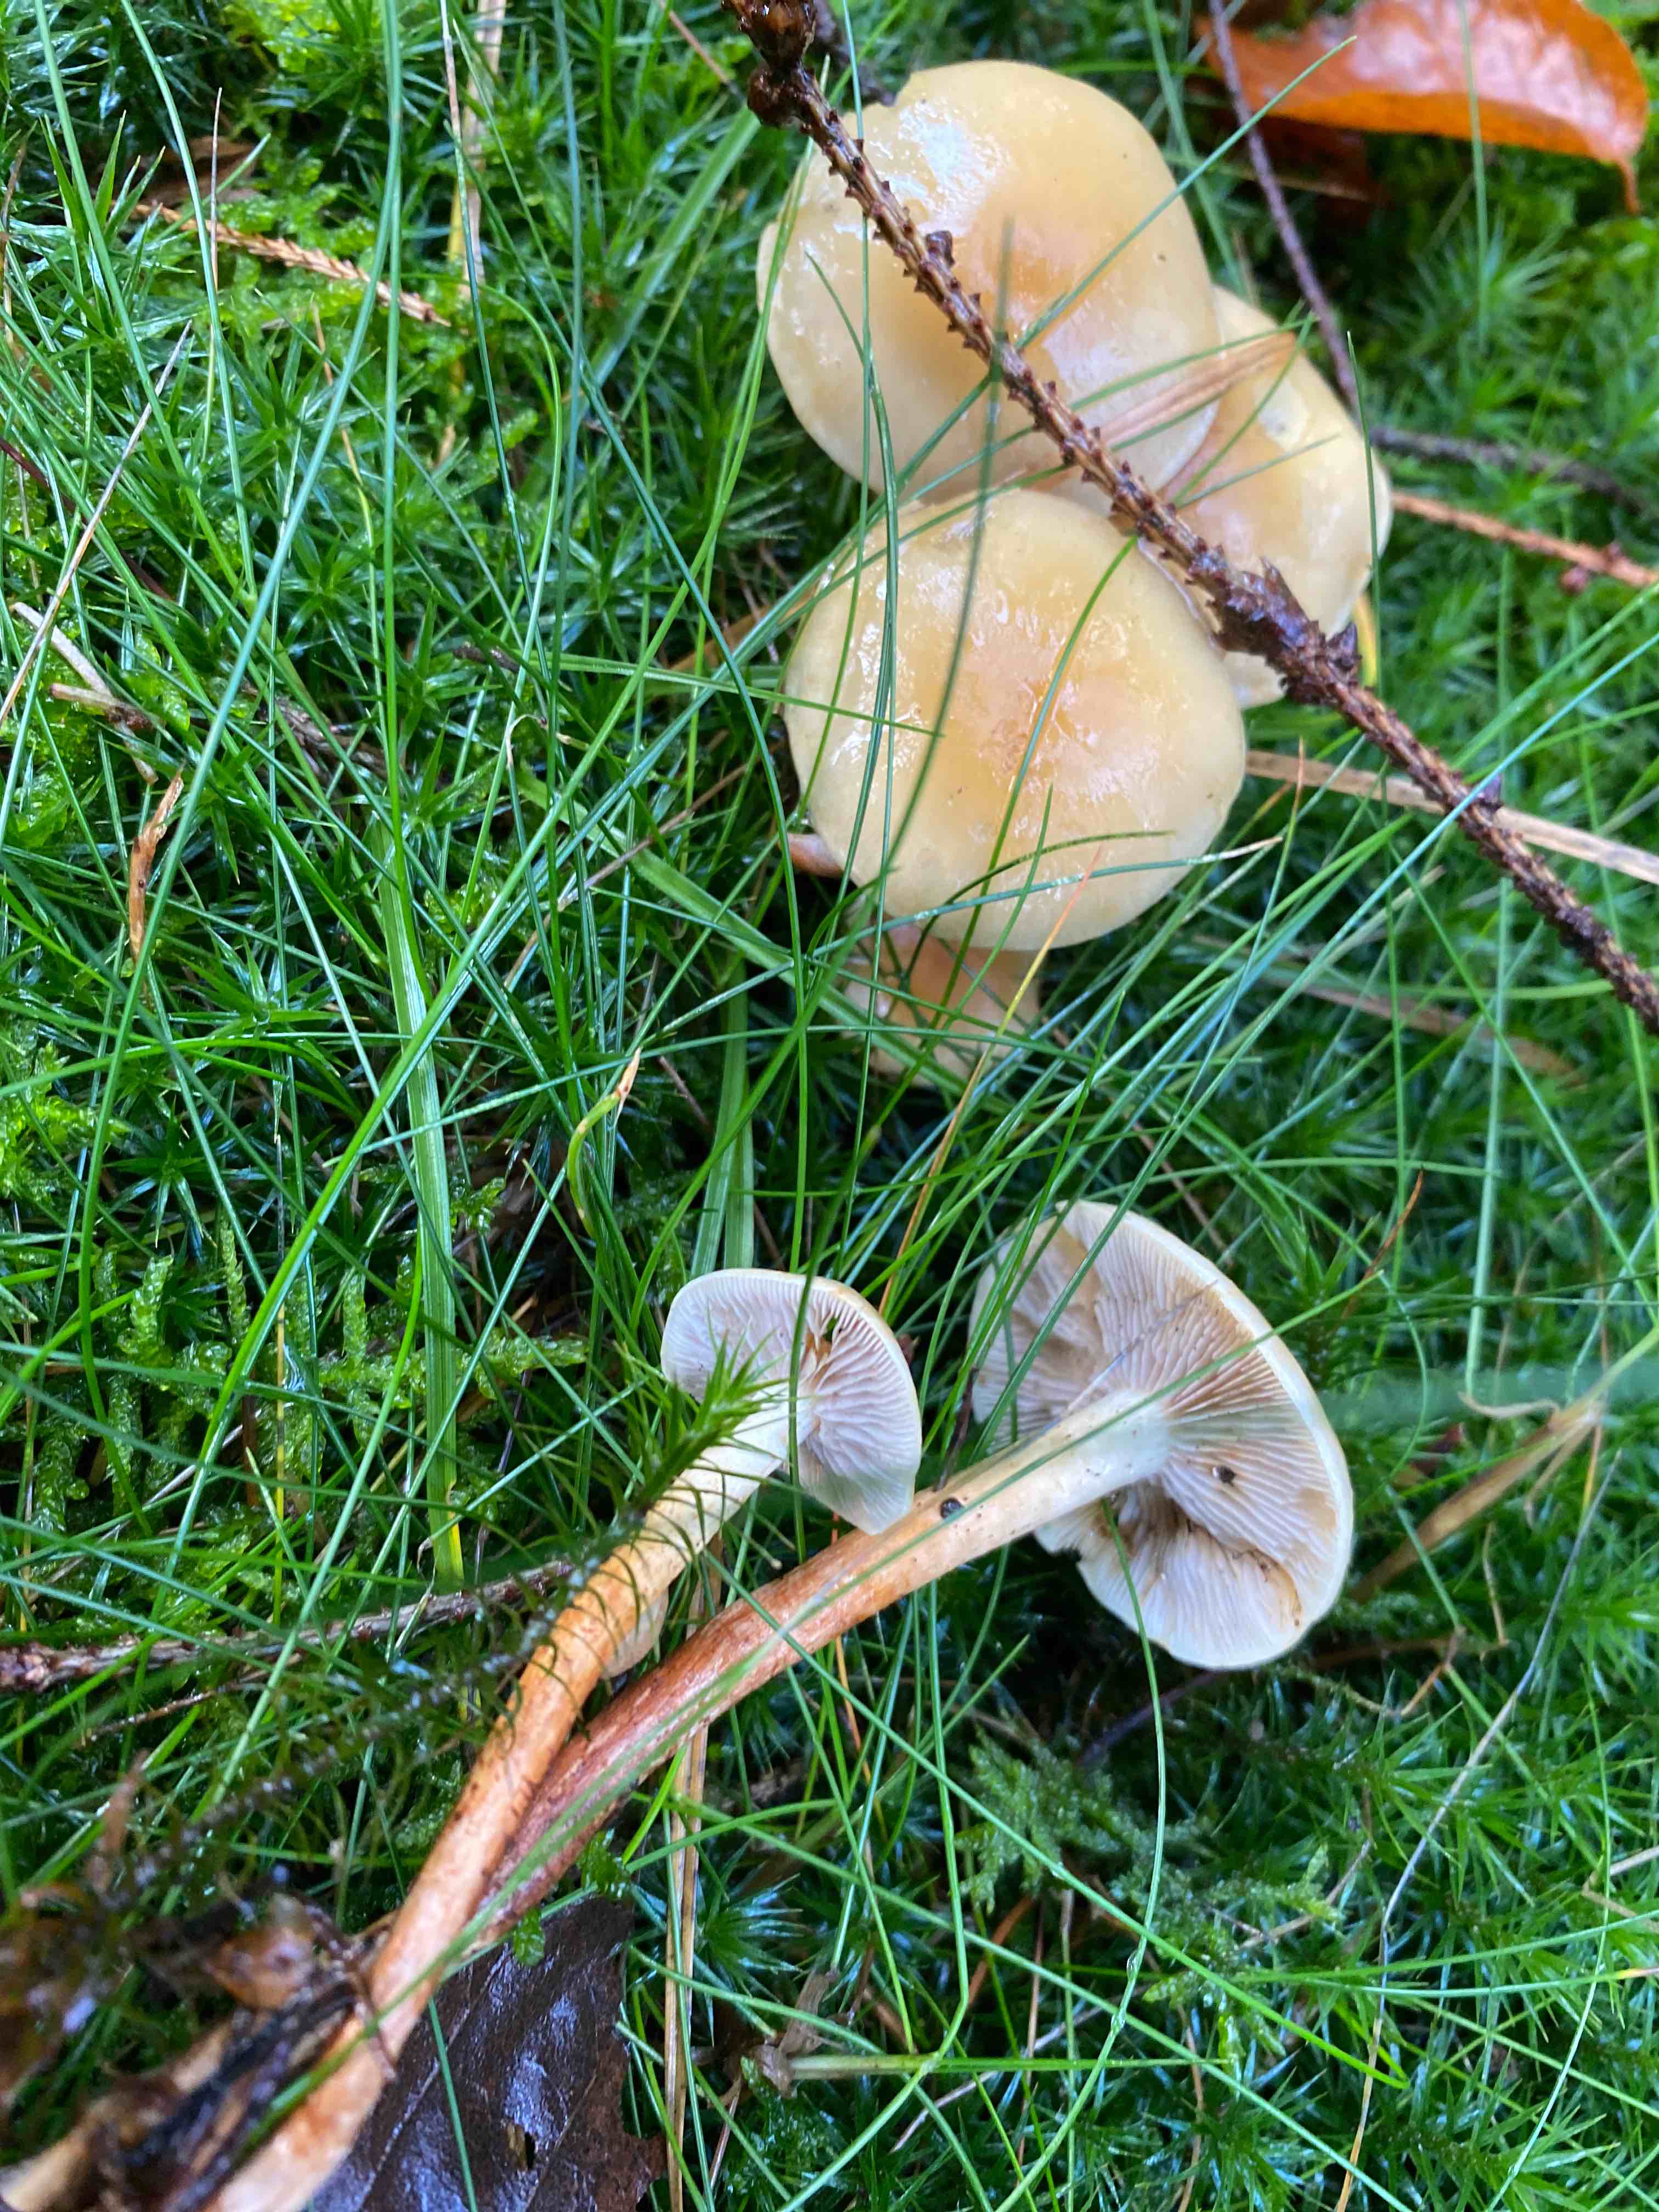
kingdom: Fungi
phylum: Basidiomycota
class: Agaricomycetes
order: Agaricales
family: Strophariaceae
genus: Hypholoma
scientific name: Hypholoma capnoides
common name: gran-svovlhat
